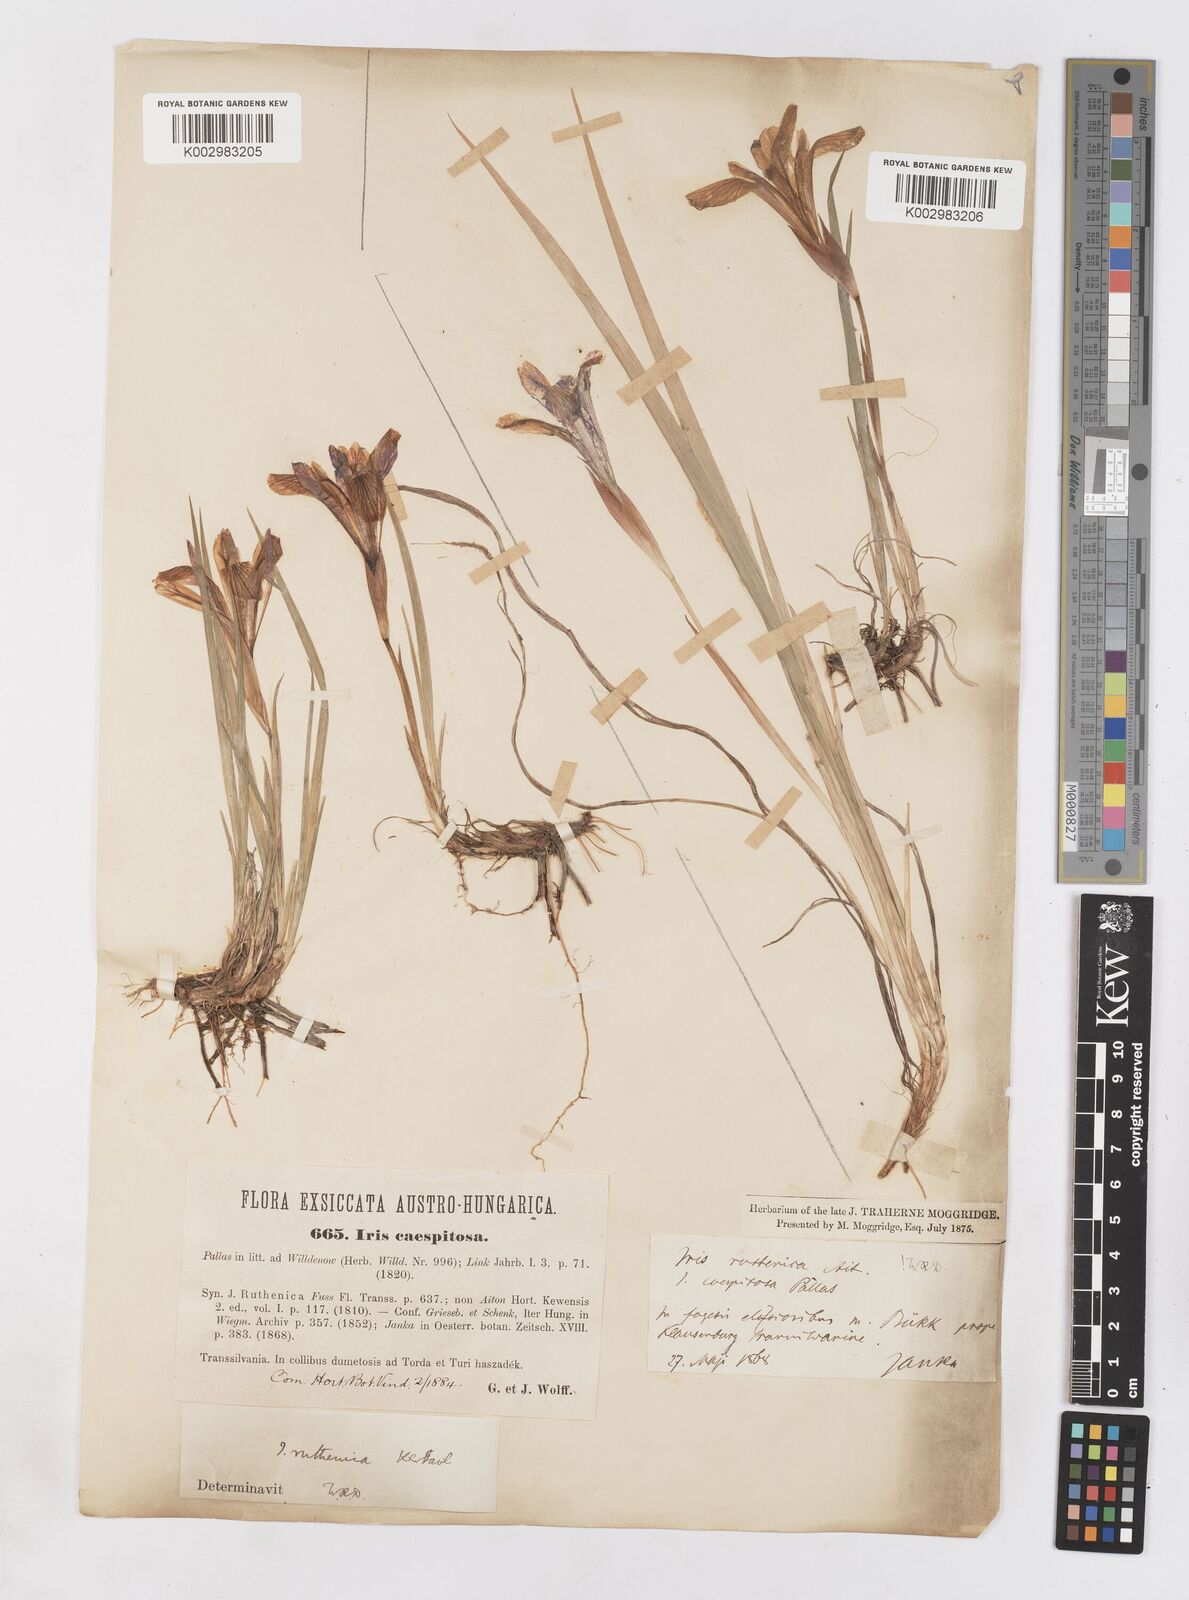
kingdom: Plantae
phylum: Tracheophyta
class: Liliopsida
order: Asparagales
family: Iridaceae
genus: Iris
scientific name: Iris ruthenica
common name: Purple-bract iris
